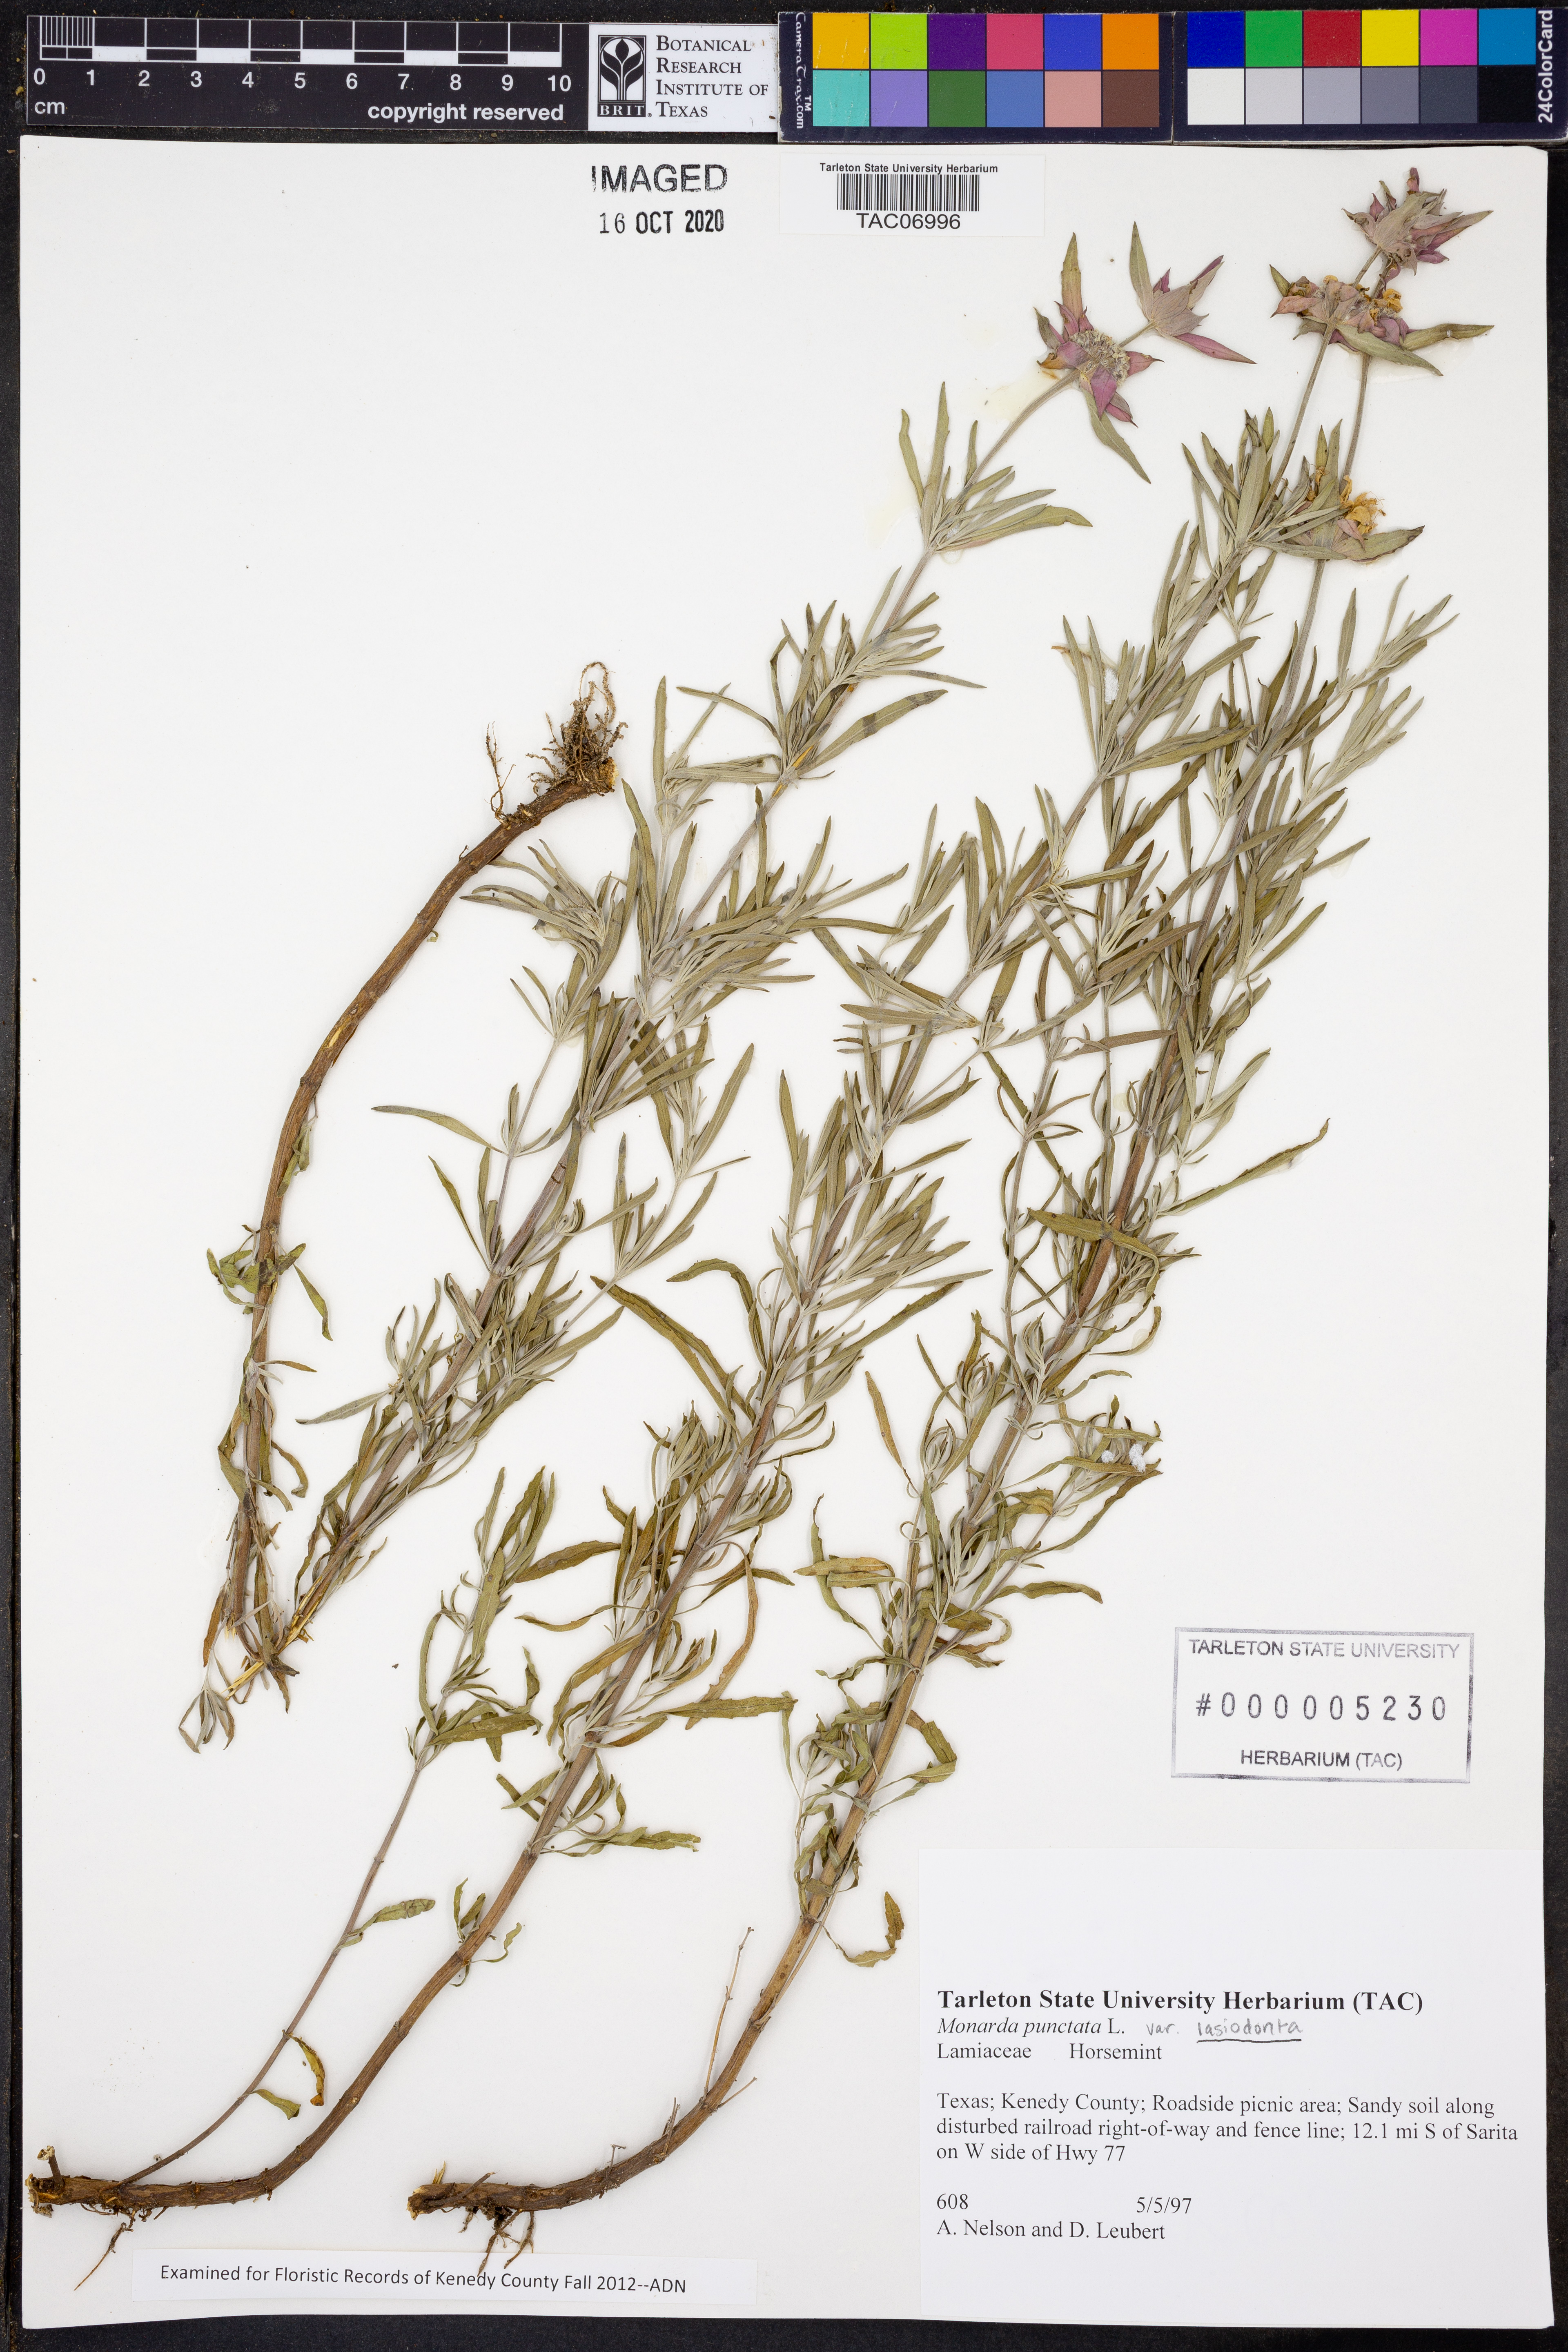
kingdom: Plantae
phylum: Tracheophyta
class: Magnoliopsida
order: Lamiales
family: Lamiaceae
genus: Monarda
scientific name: Monarda punctata
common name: Dotted monarda
